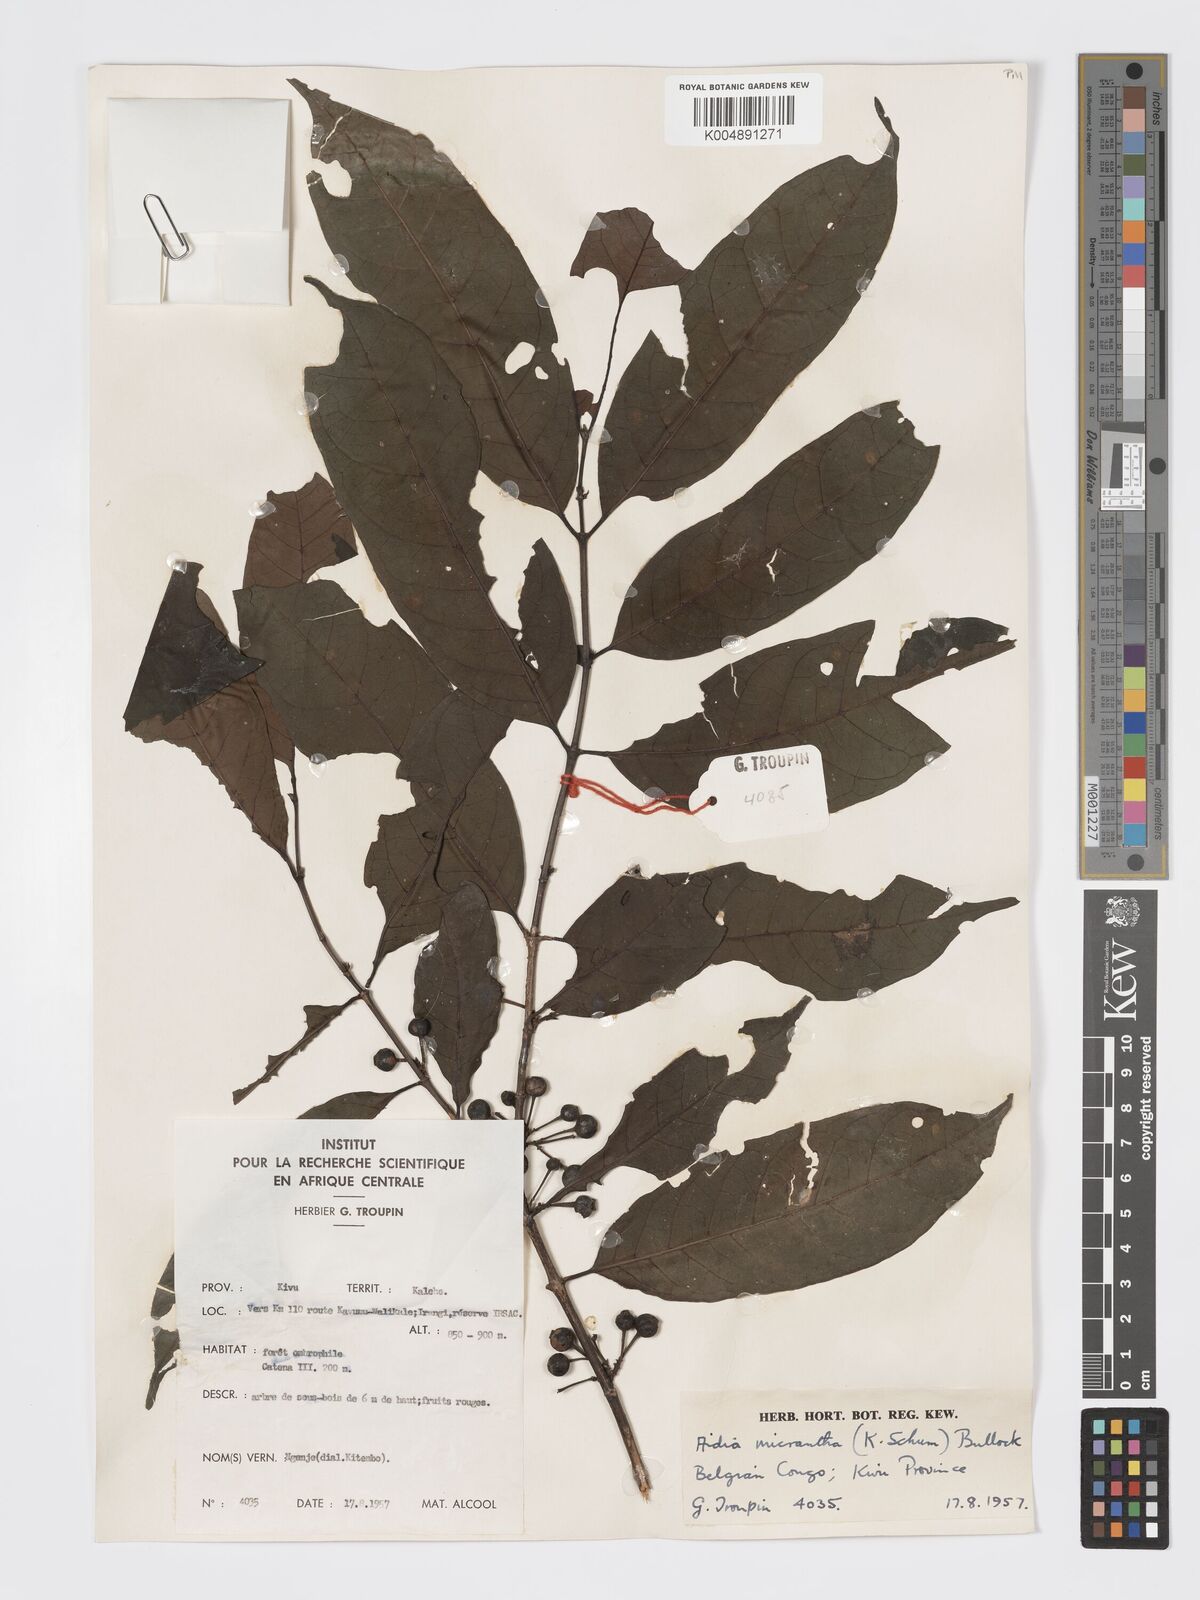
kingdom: Plantae
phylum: Tracheophyta
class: Magnoliopsida
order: Gentianales
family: Rubiaceae
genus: Aidia
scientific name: Aidia micrantha
